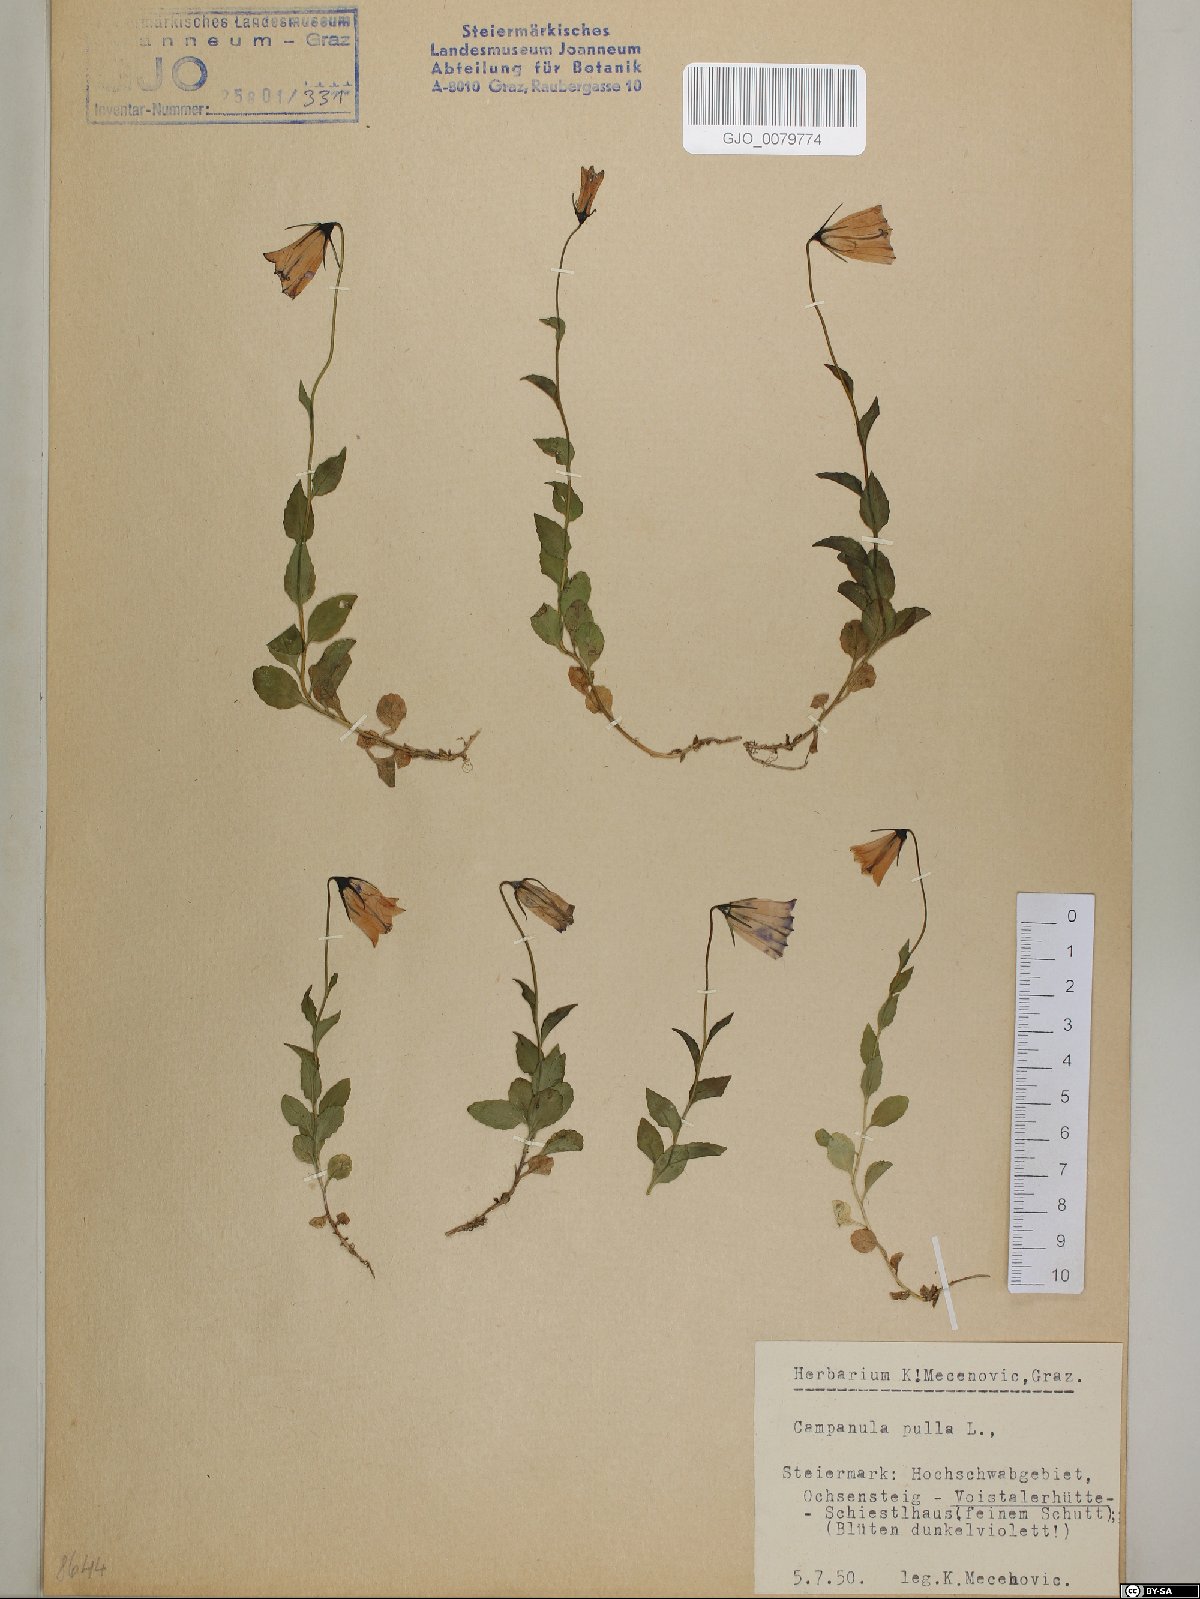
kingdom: Plantae
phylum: Tracheophyta
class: Magnoliopsida
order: Asterales
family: Campanulaceae
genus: Campanula
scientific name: Campanula pulla
